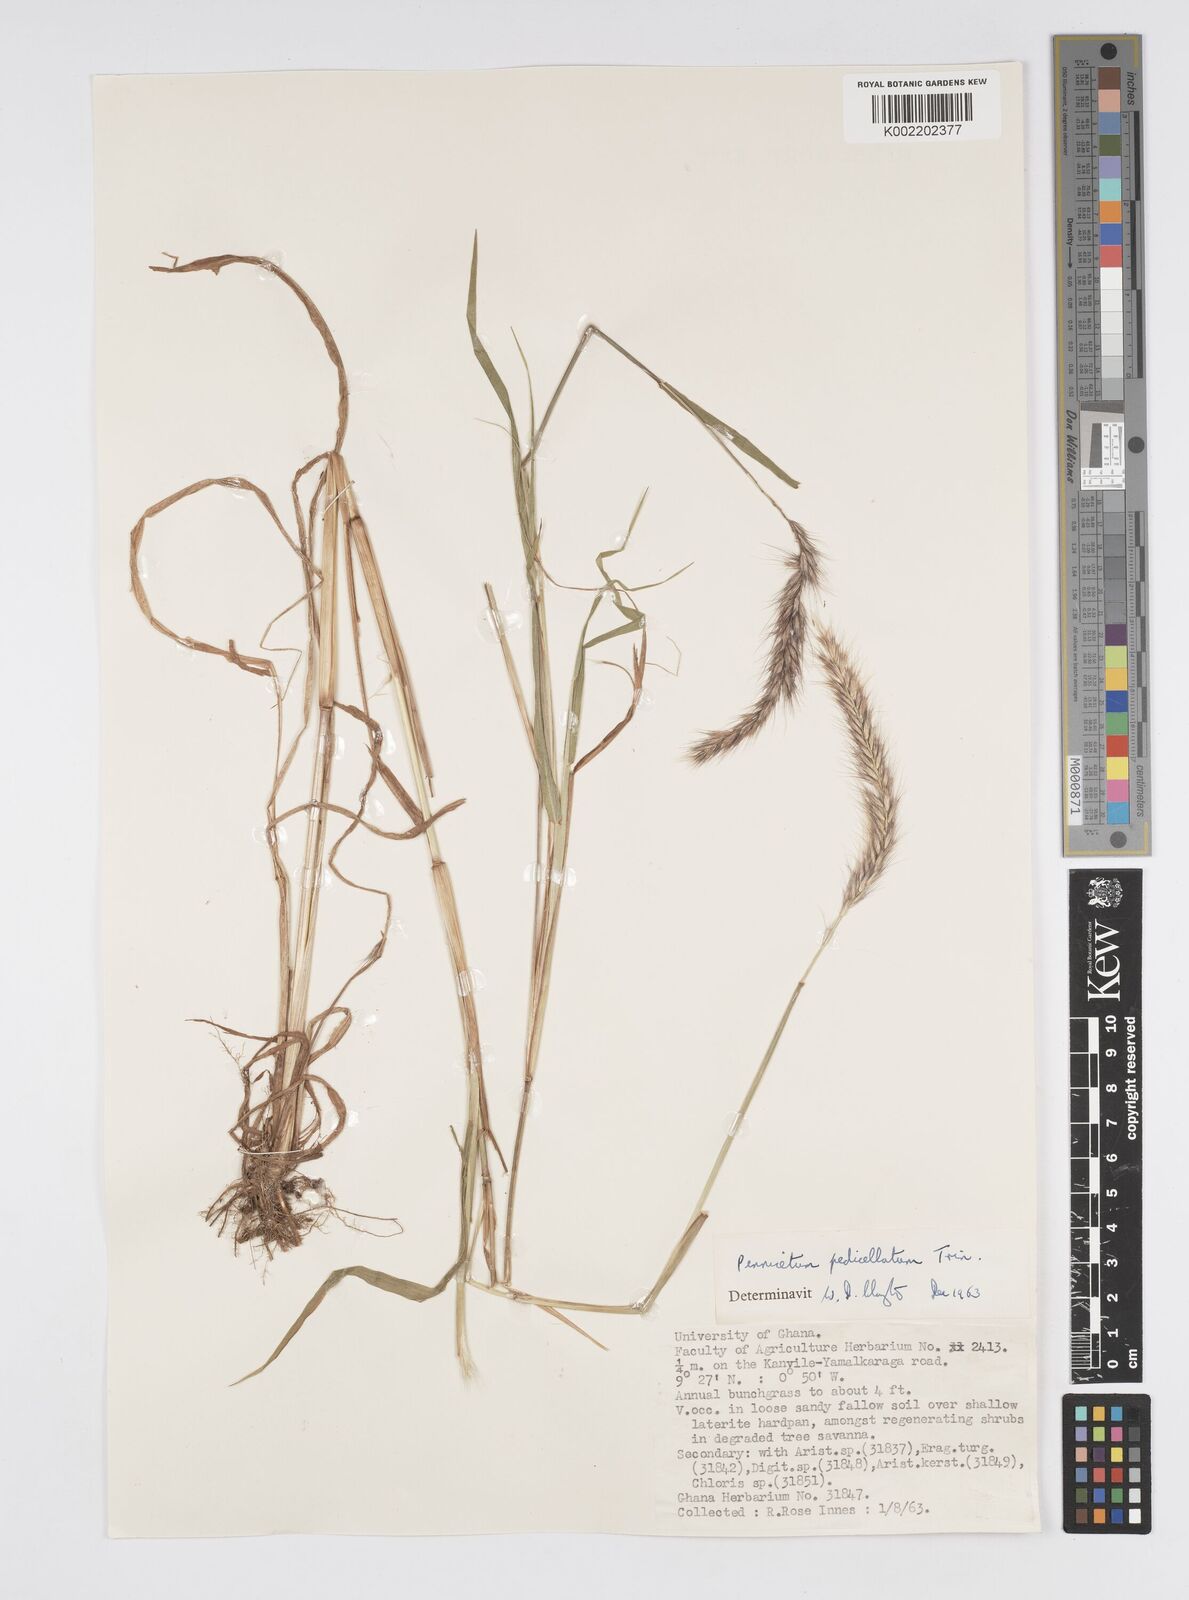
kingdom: Plantae
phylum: Tracheophyta
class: Liliopsida
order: Poales
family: Poaceae
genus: Cenchrus
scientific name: Cenchrus pedicellatus
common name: Hairy fountain grass
